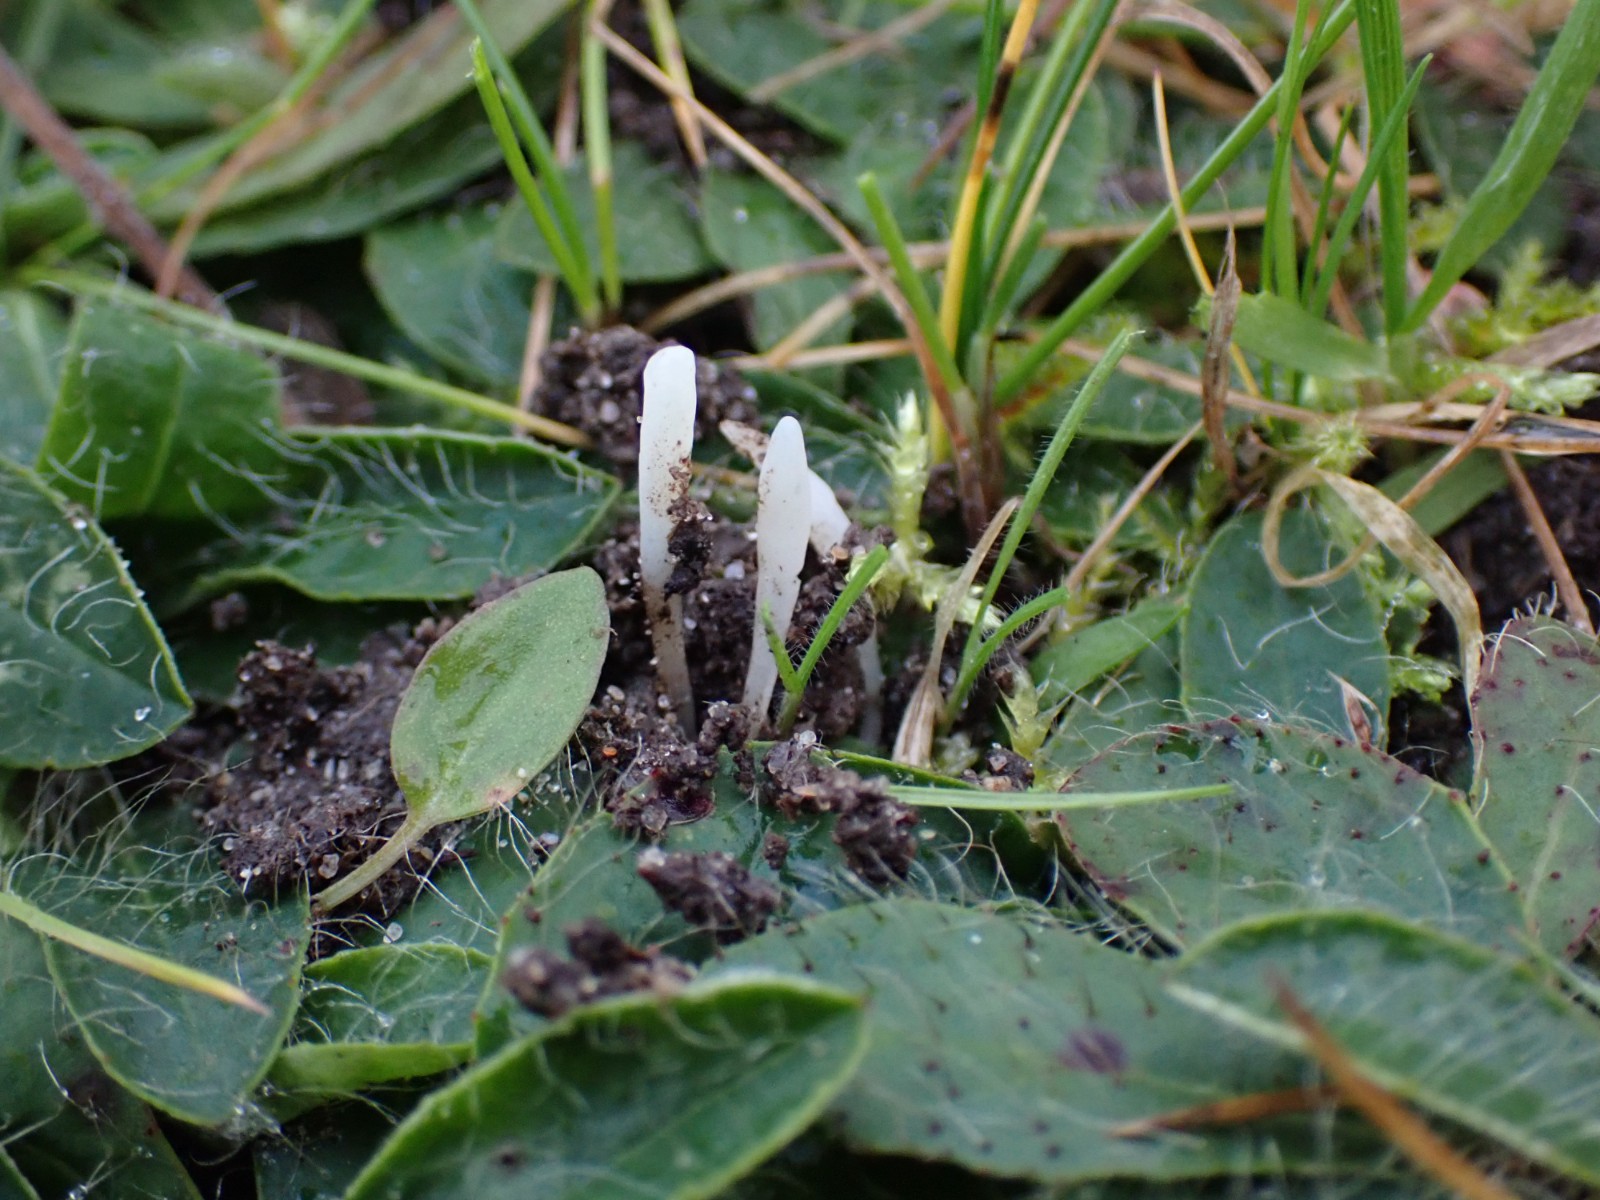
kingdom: Fungi
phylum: Basidiomycota
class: Agaricomycetes
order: Agaricales
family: Clavariaceae
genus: Clavaria
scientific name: Clavaria falcata
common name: hvid køllesvamp
